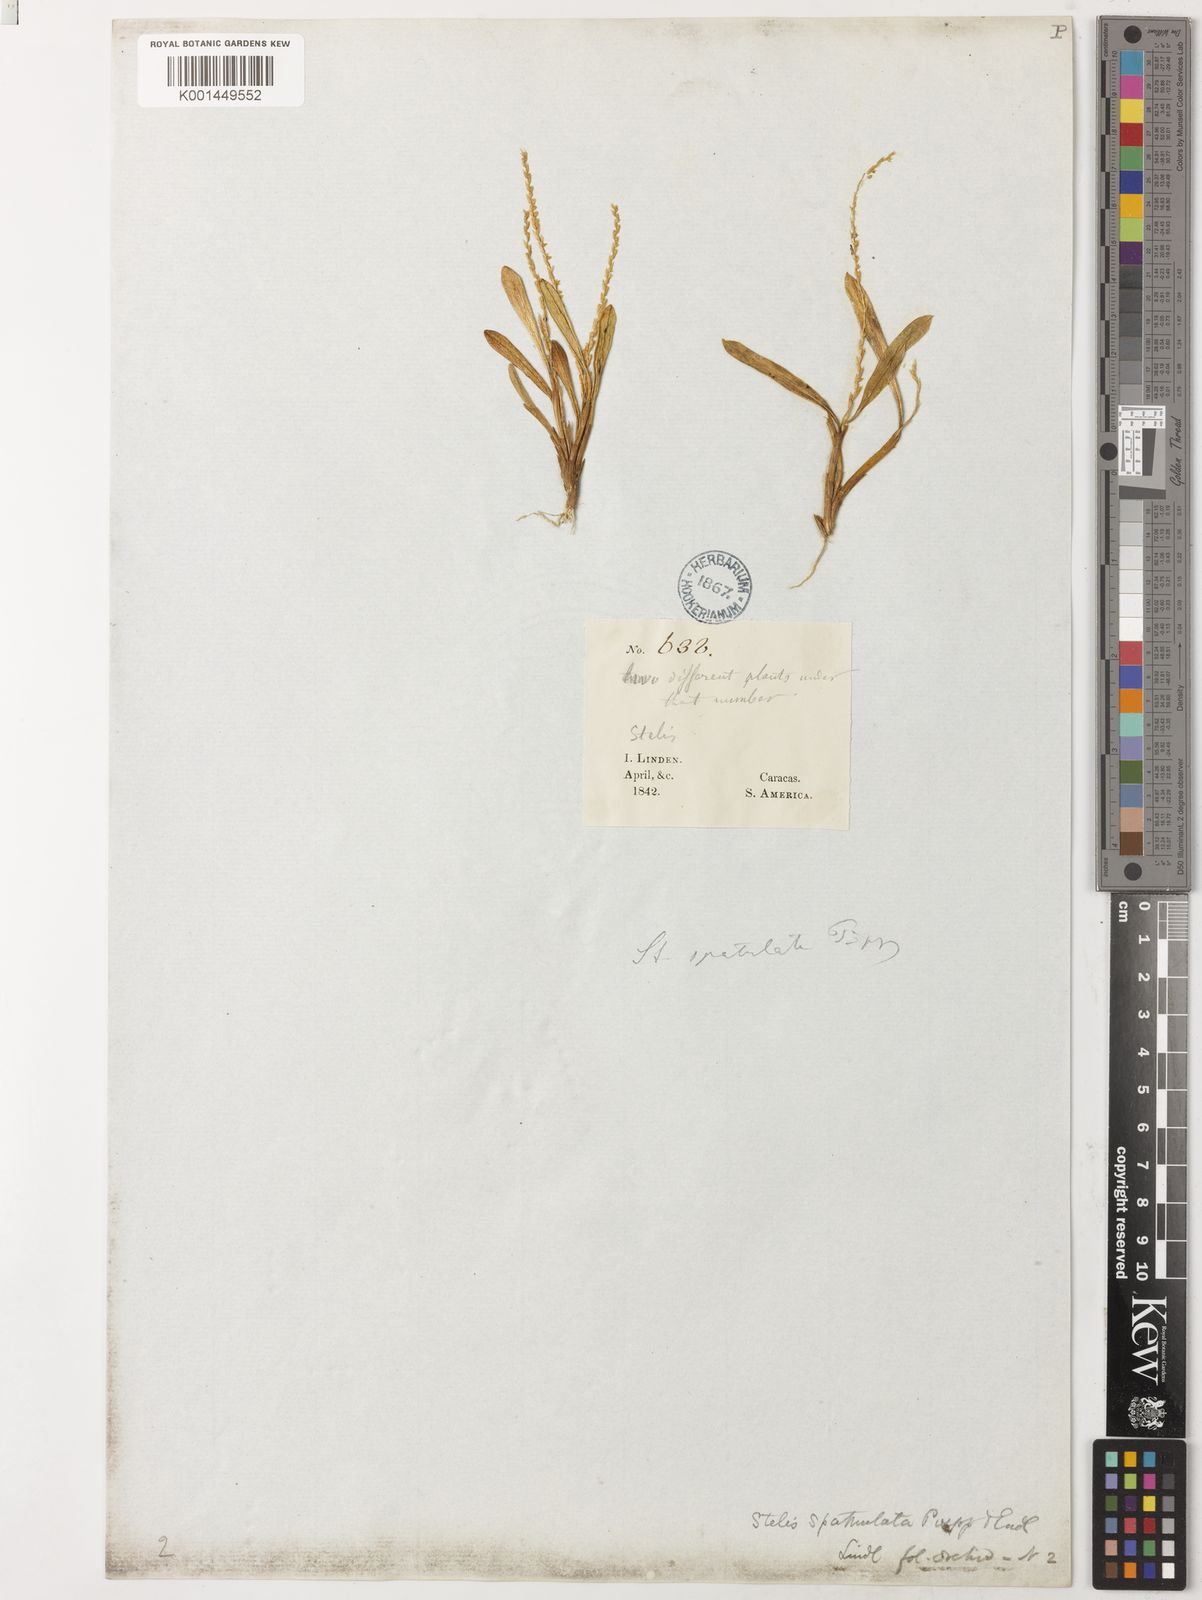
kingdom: Plantae
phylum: Tracheophyta
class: Liliopsida
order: Asparagales
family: Orchidaceae
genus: Stelis
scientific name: Stelis spathulata
